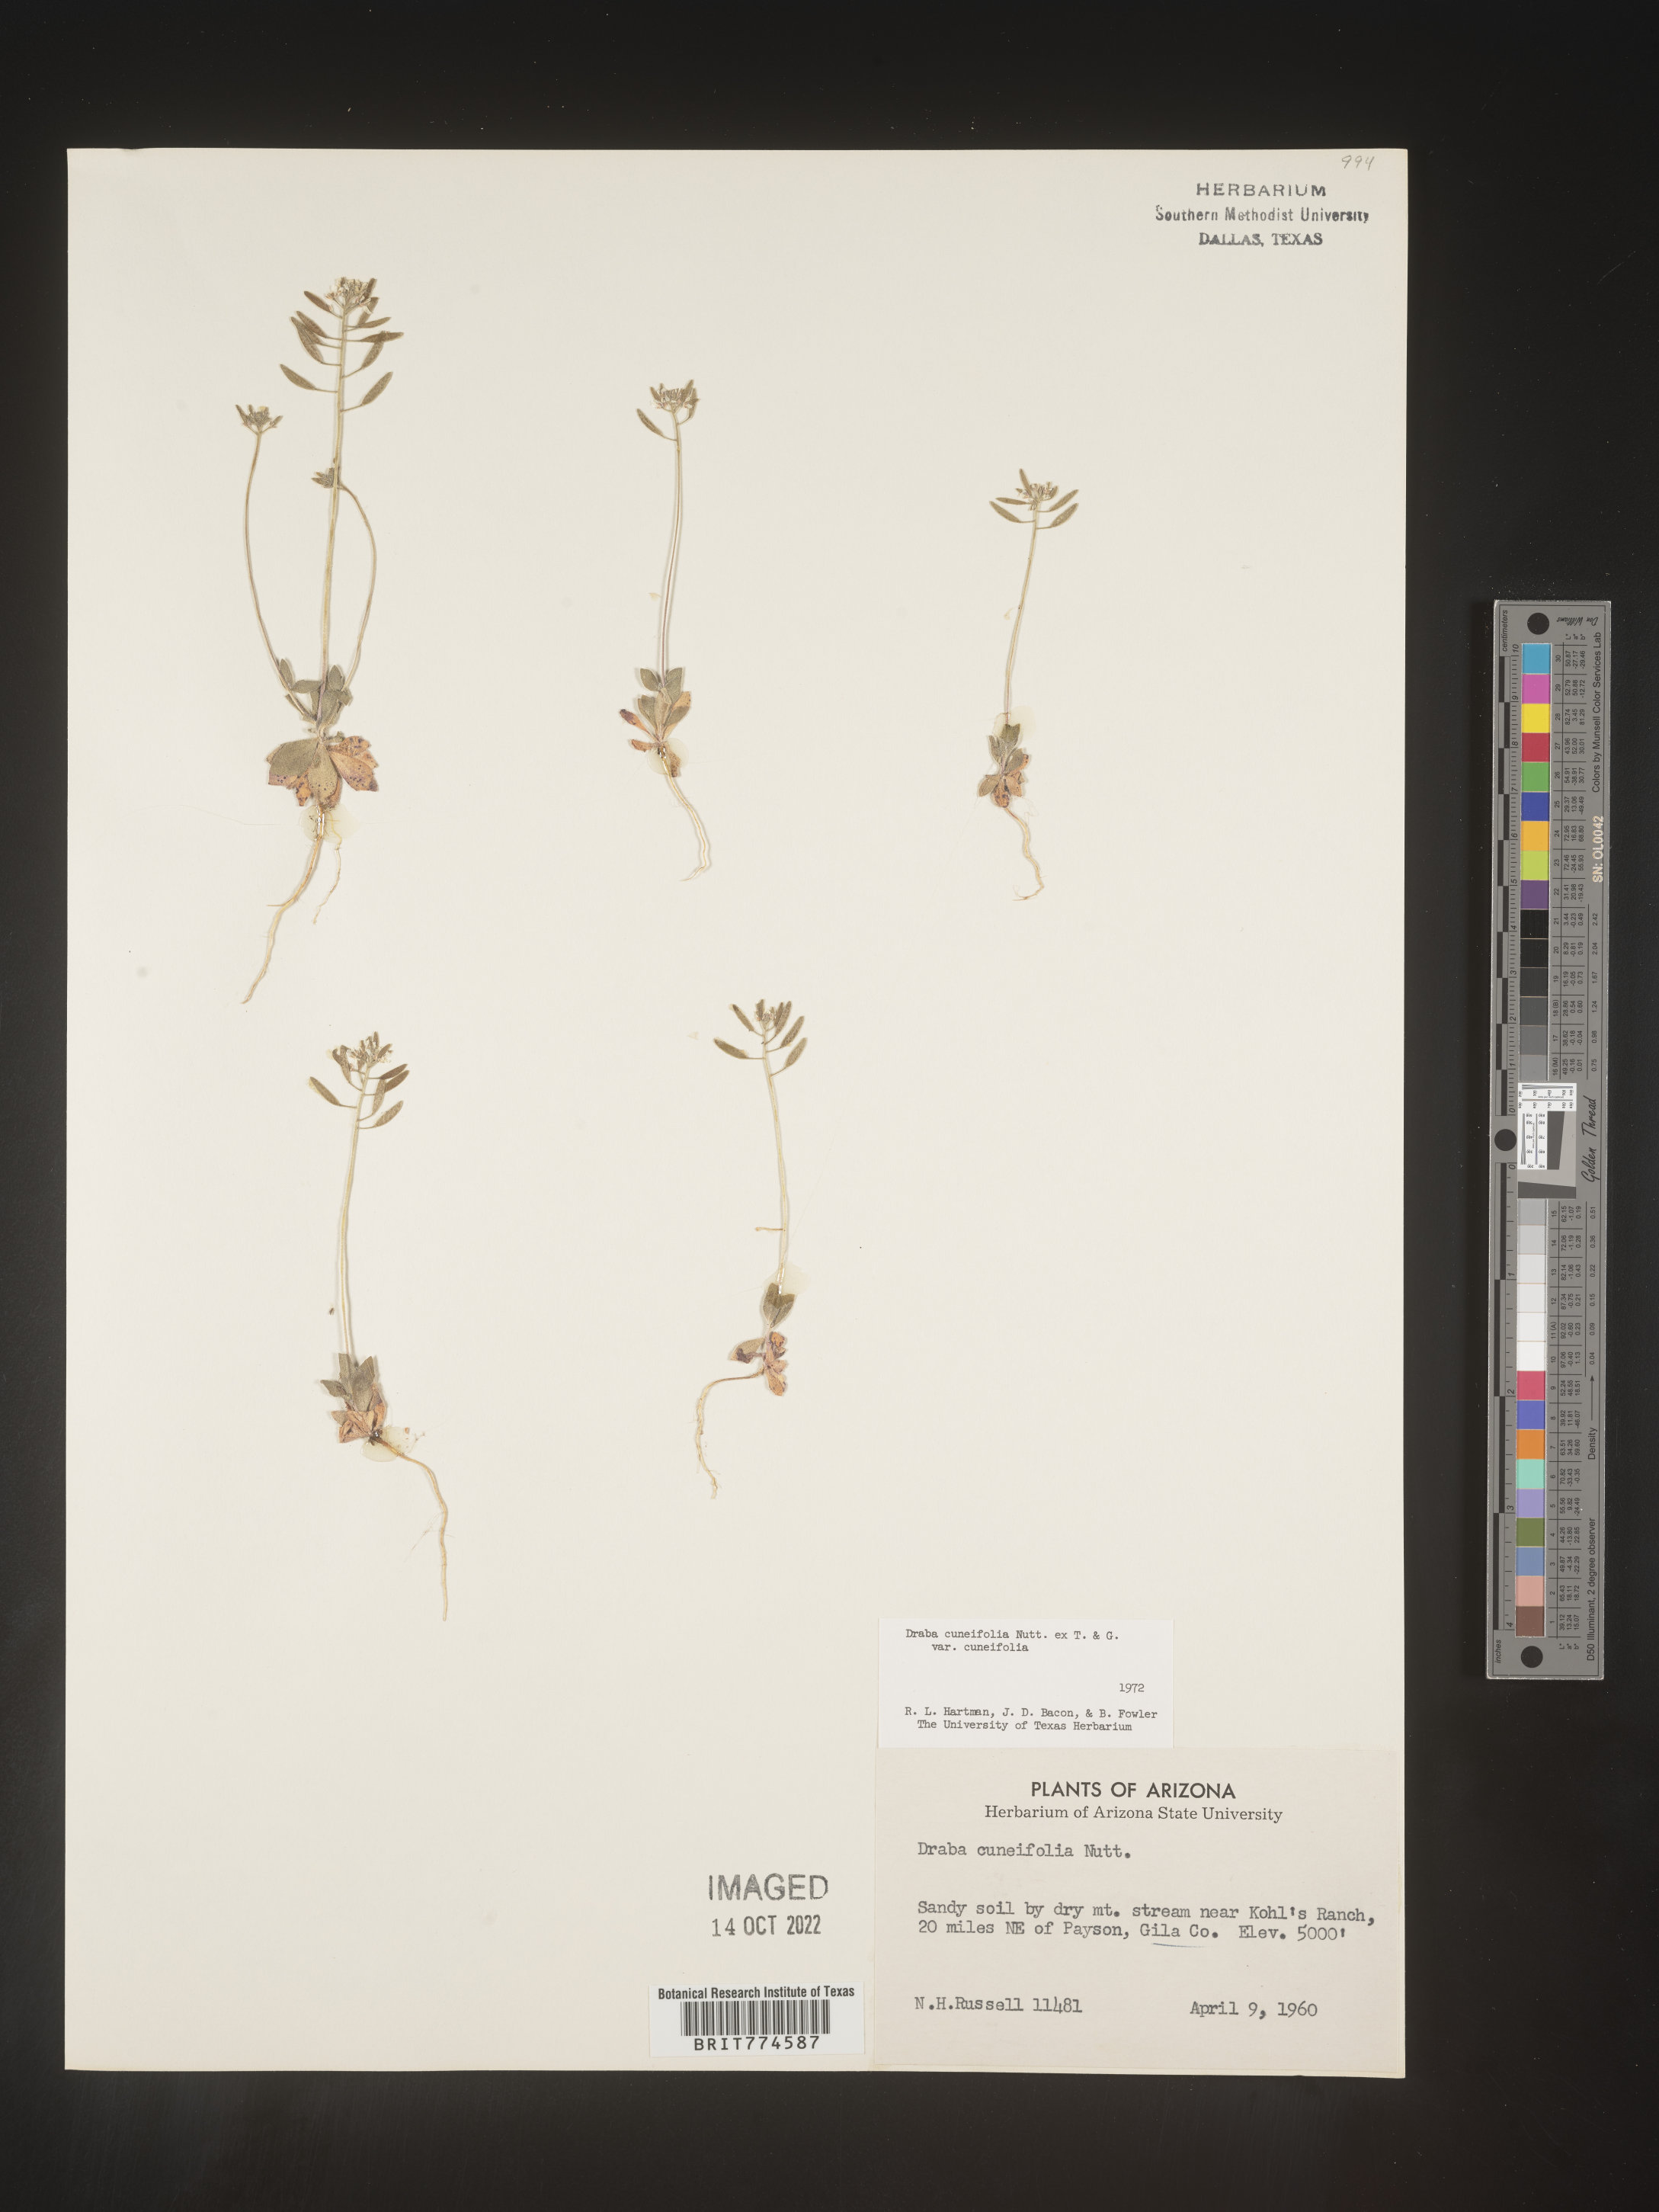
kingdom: Plantae
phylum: Tracheophyta
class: Magnoliopsida
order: Brassicales
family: Brassicaceae
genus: Tomostima
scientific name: Tomostima cuneifolia
